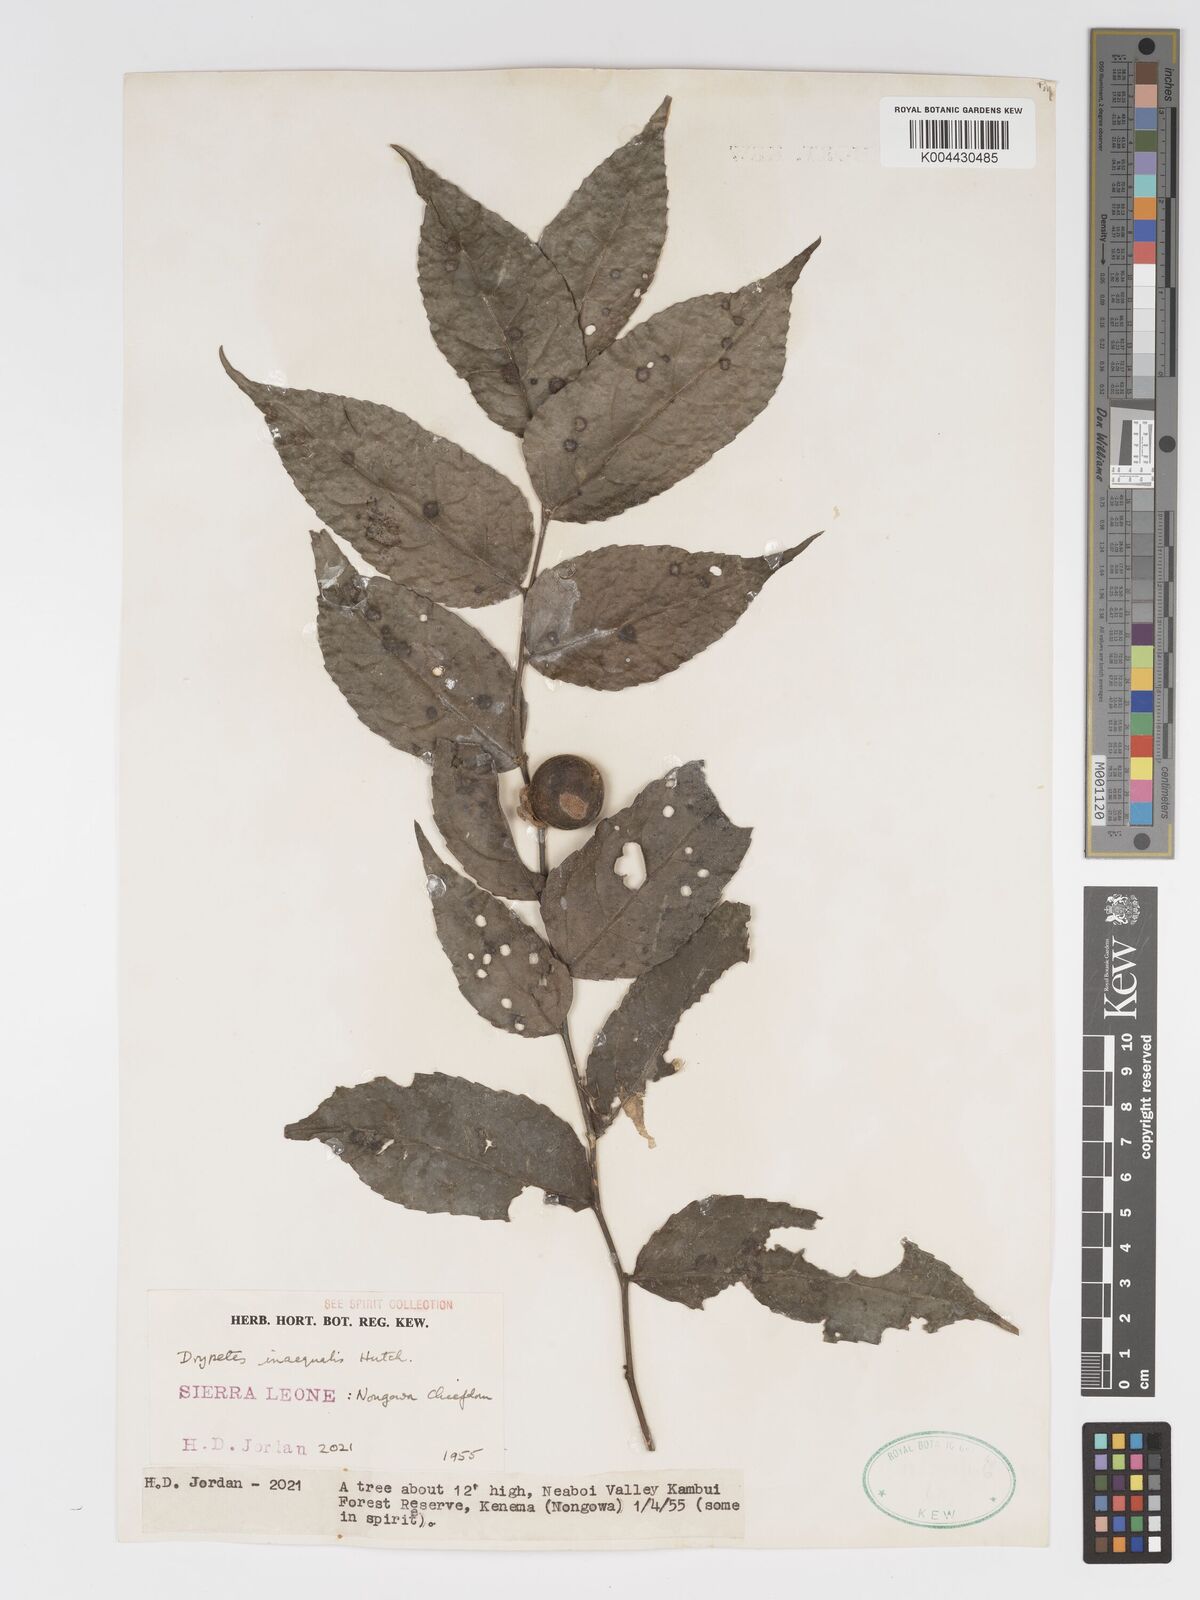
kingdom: Plantae
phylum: Tracheophyta
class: Magnoliopsida
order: Malpighiales
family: Putranjivaceae
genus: Drypetes
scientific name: Drypetes inaequalis
